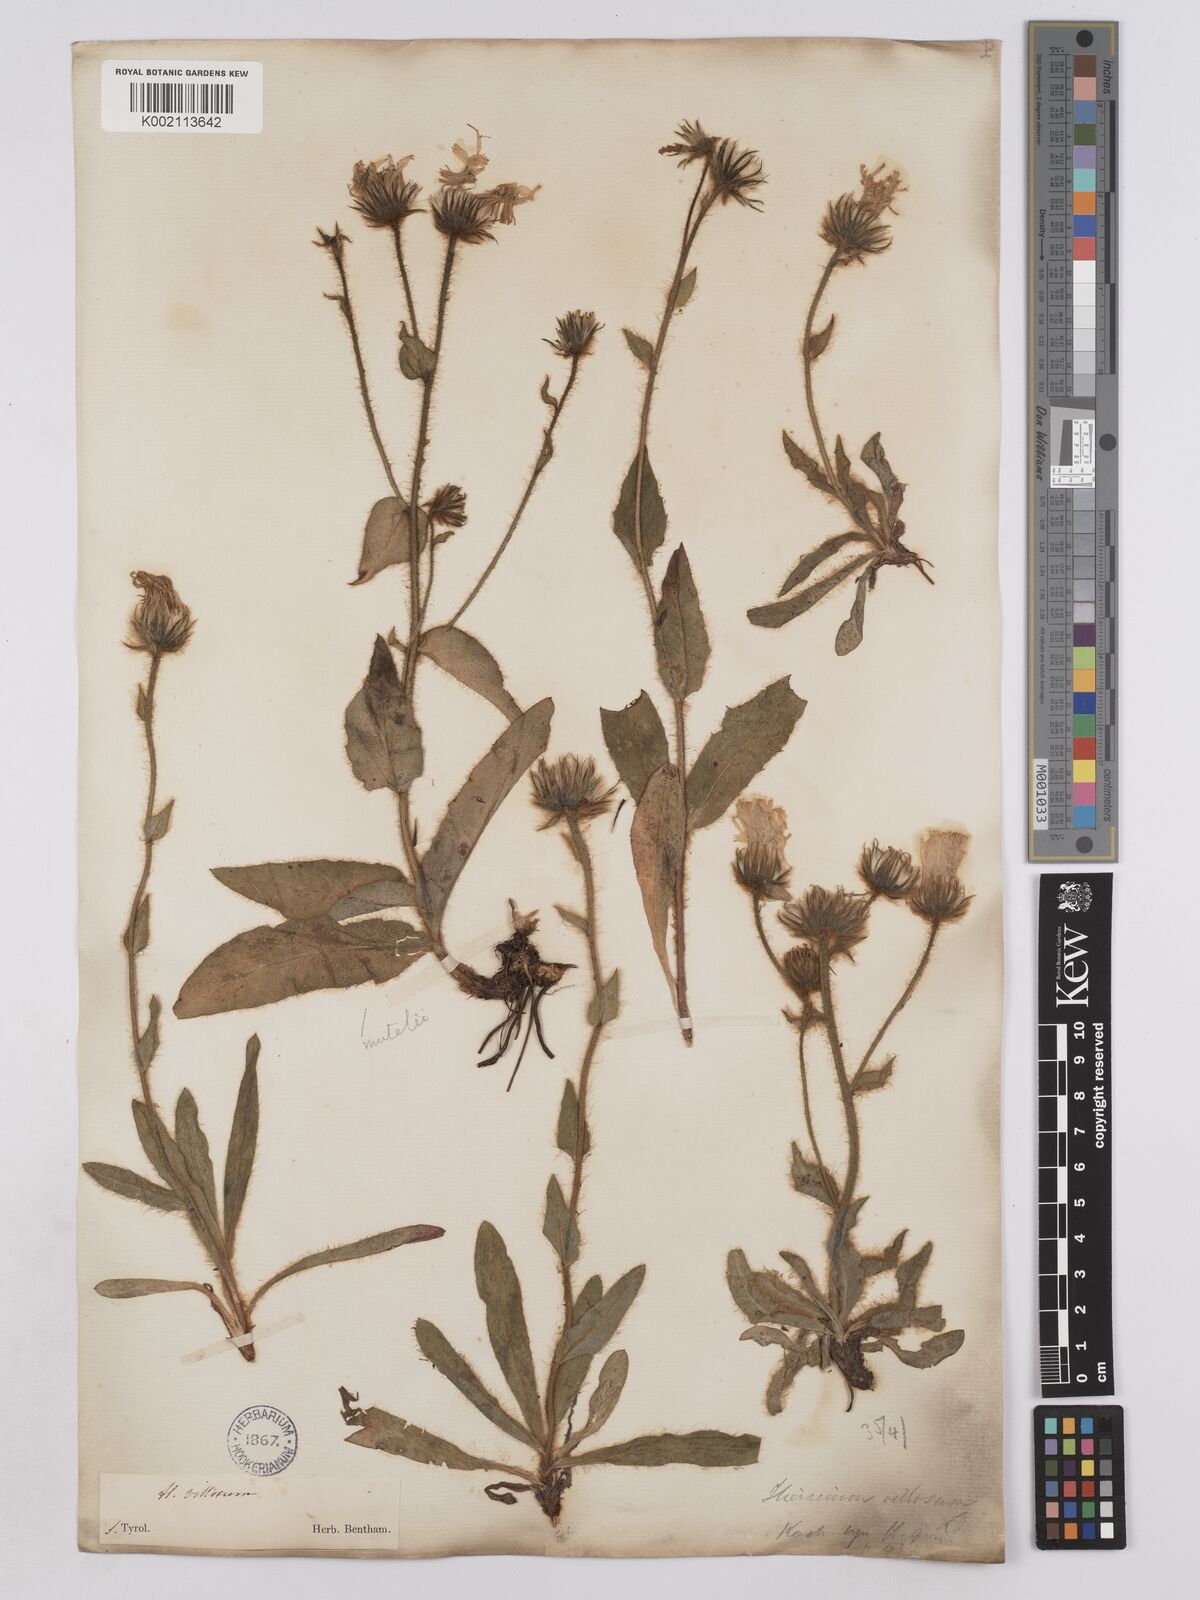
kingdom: Plantae
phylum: Tracheophyta
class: Magnoliopsida
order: Asterales
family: Asteraceae
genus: Hieracium
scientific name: Hieracium villosum
